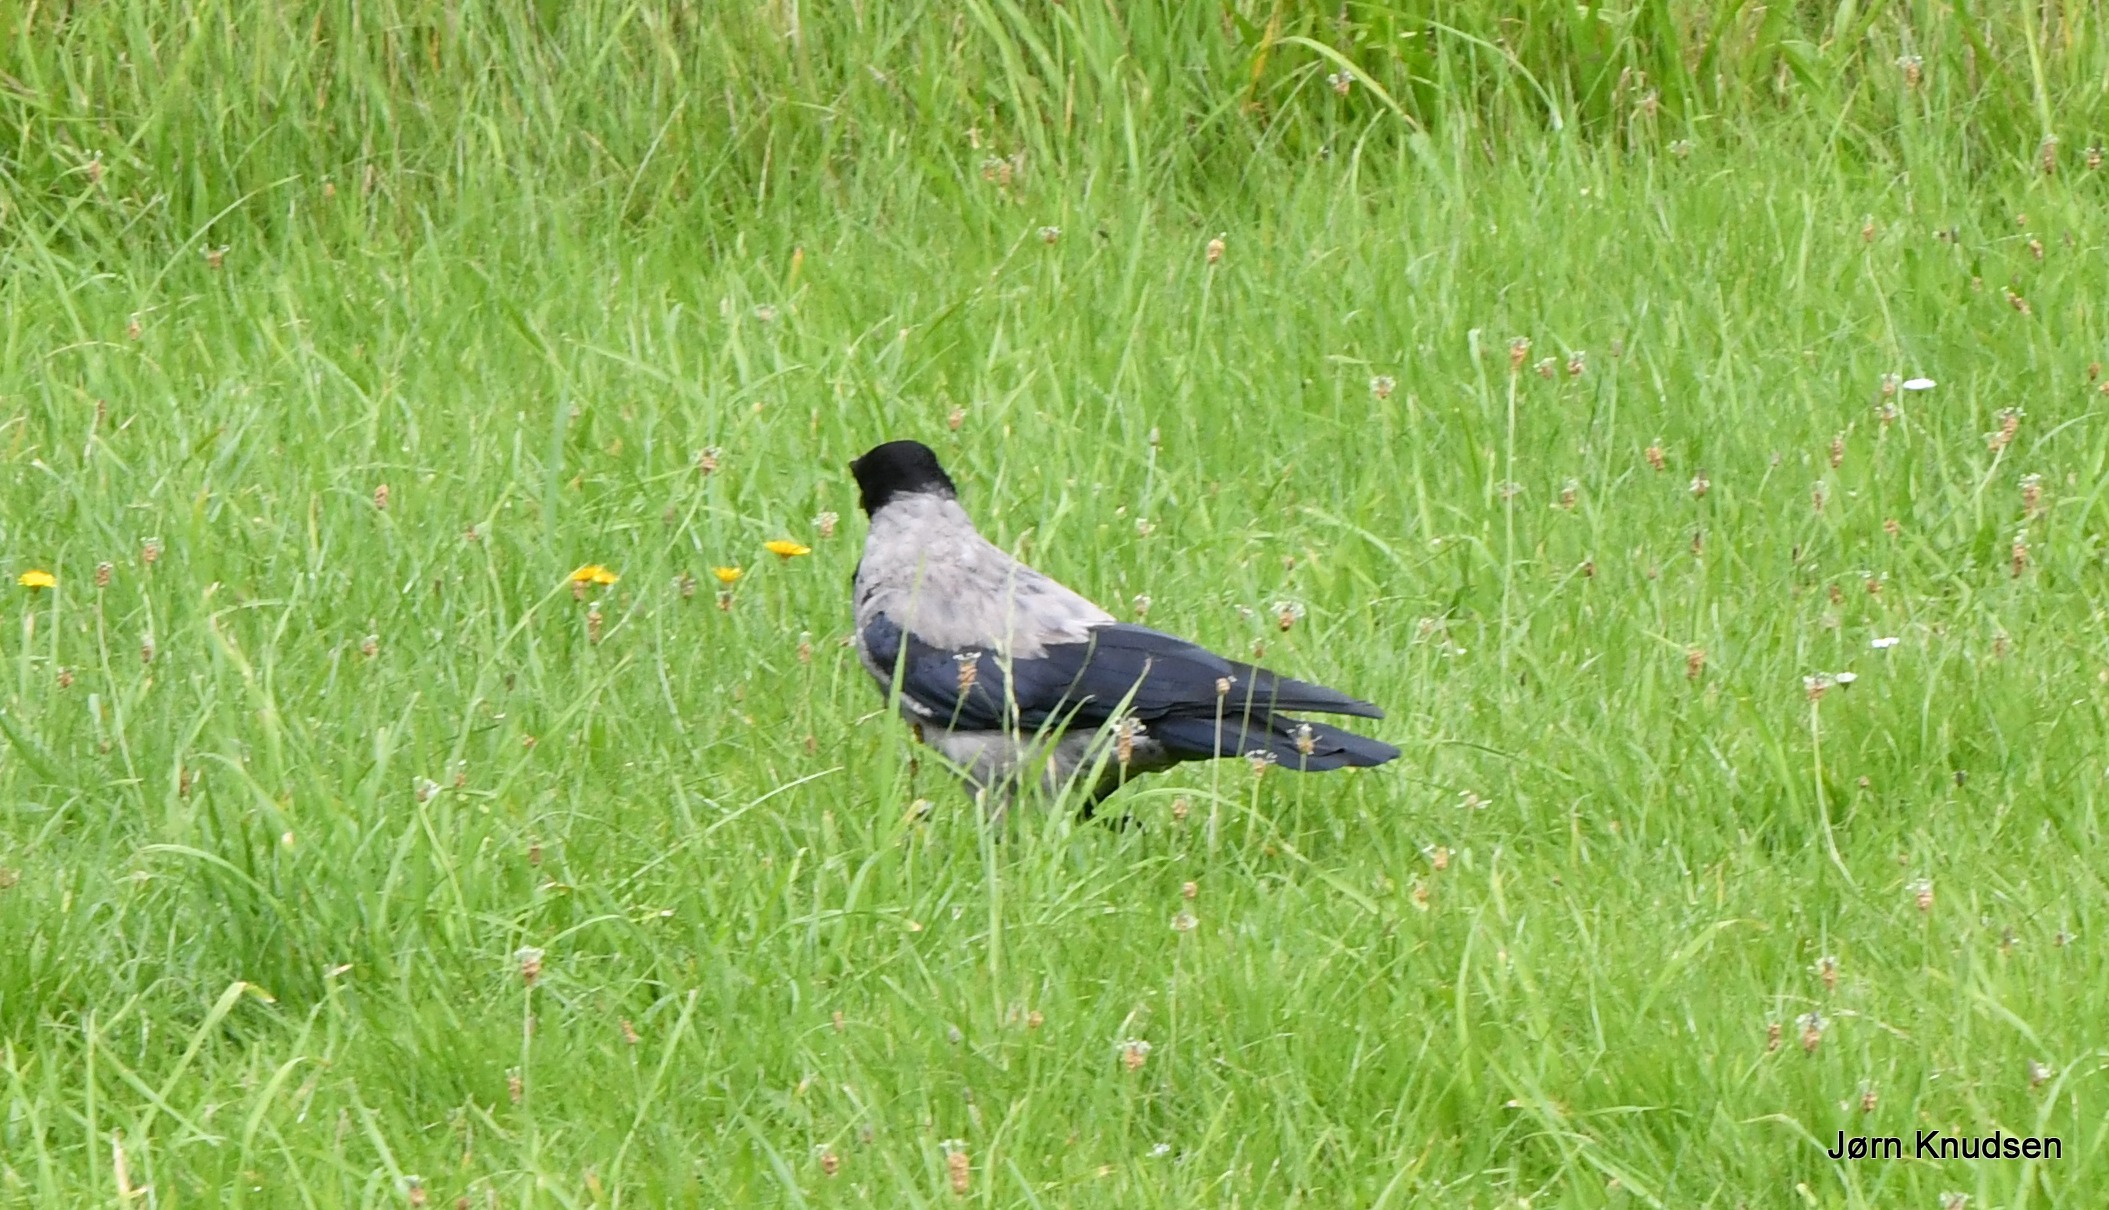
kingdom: Animalia
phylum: Chordata
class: Aves
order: Passeriformes
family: Corvidae
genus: Corvus
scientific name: Corvus cornix
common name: Gråkrage
